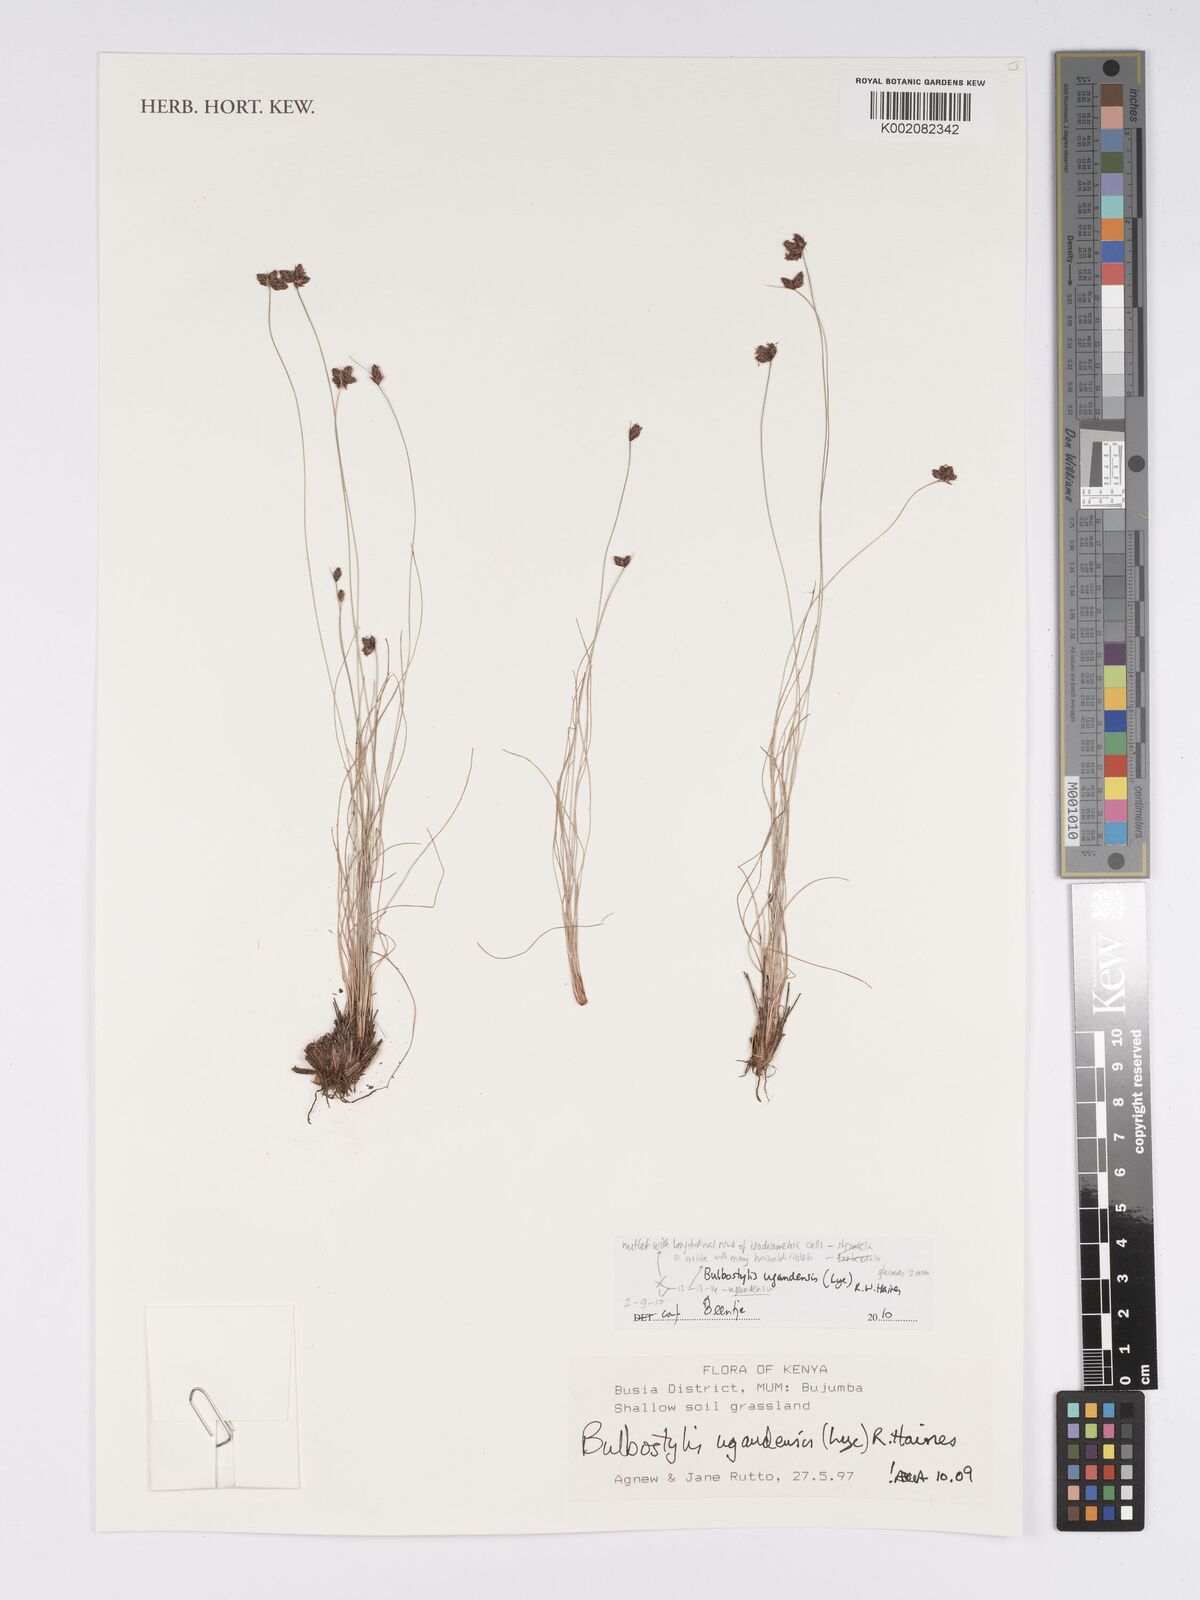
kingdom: Plantae
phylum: Tracheophyta
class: Liliopsida
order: Poales
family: Cyperaceae
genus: Bulbostylis
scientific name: Bulbostylis ugandensis
